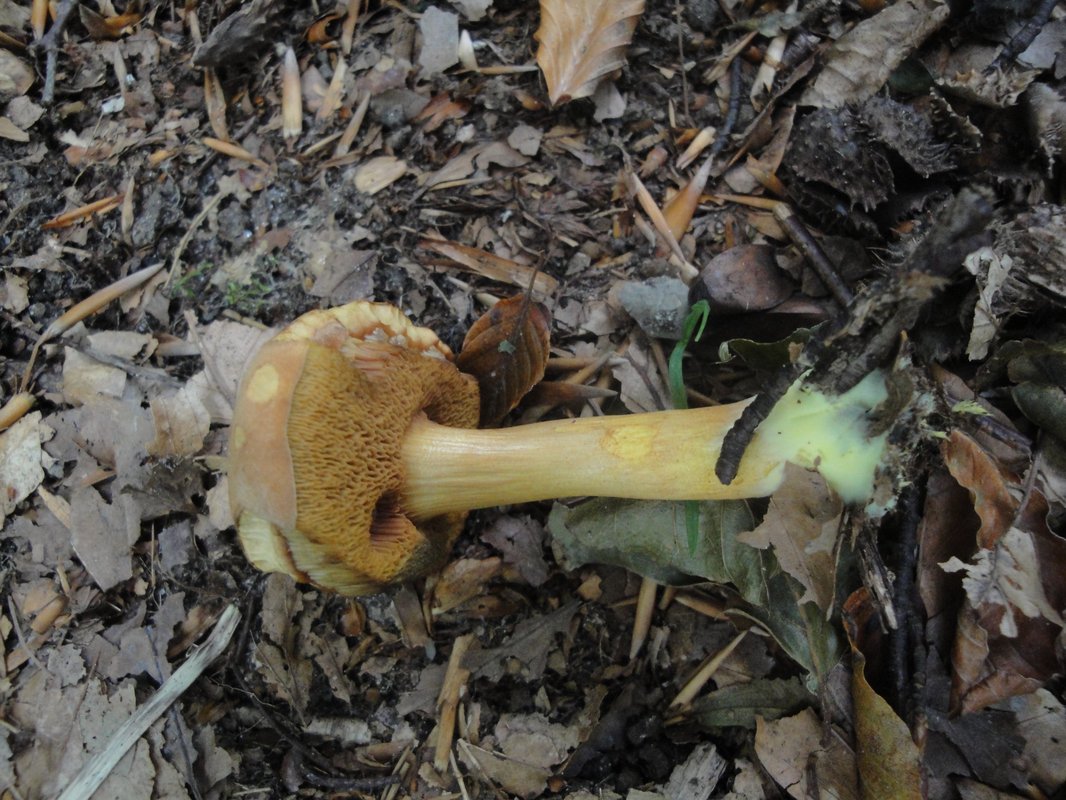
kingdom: Fungi
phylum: Basidiomycota
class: Agaricomycetes
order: Boletales
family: Boletaceae
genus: Chalciporus
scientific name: Chalciporus piperatus
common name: peberrørhat
